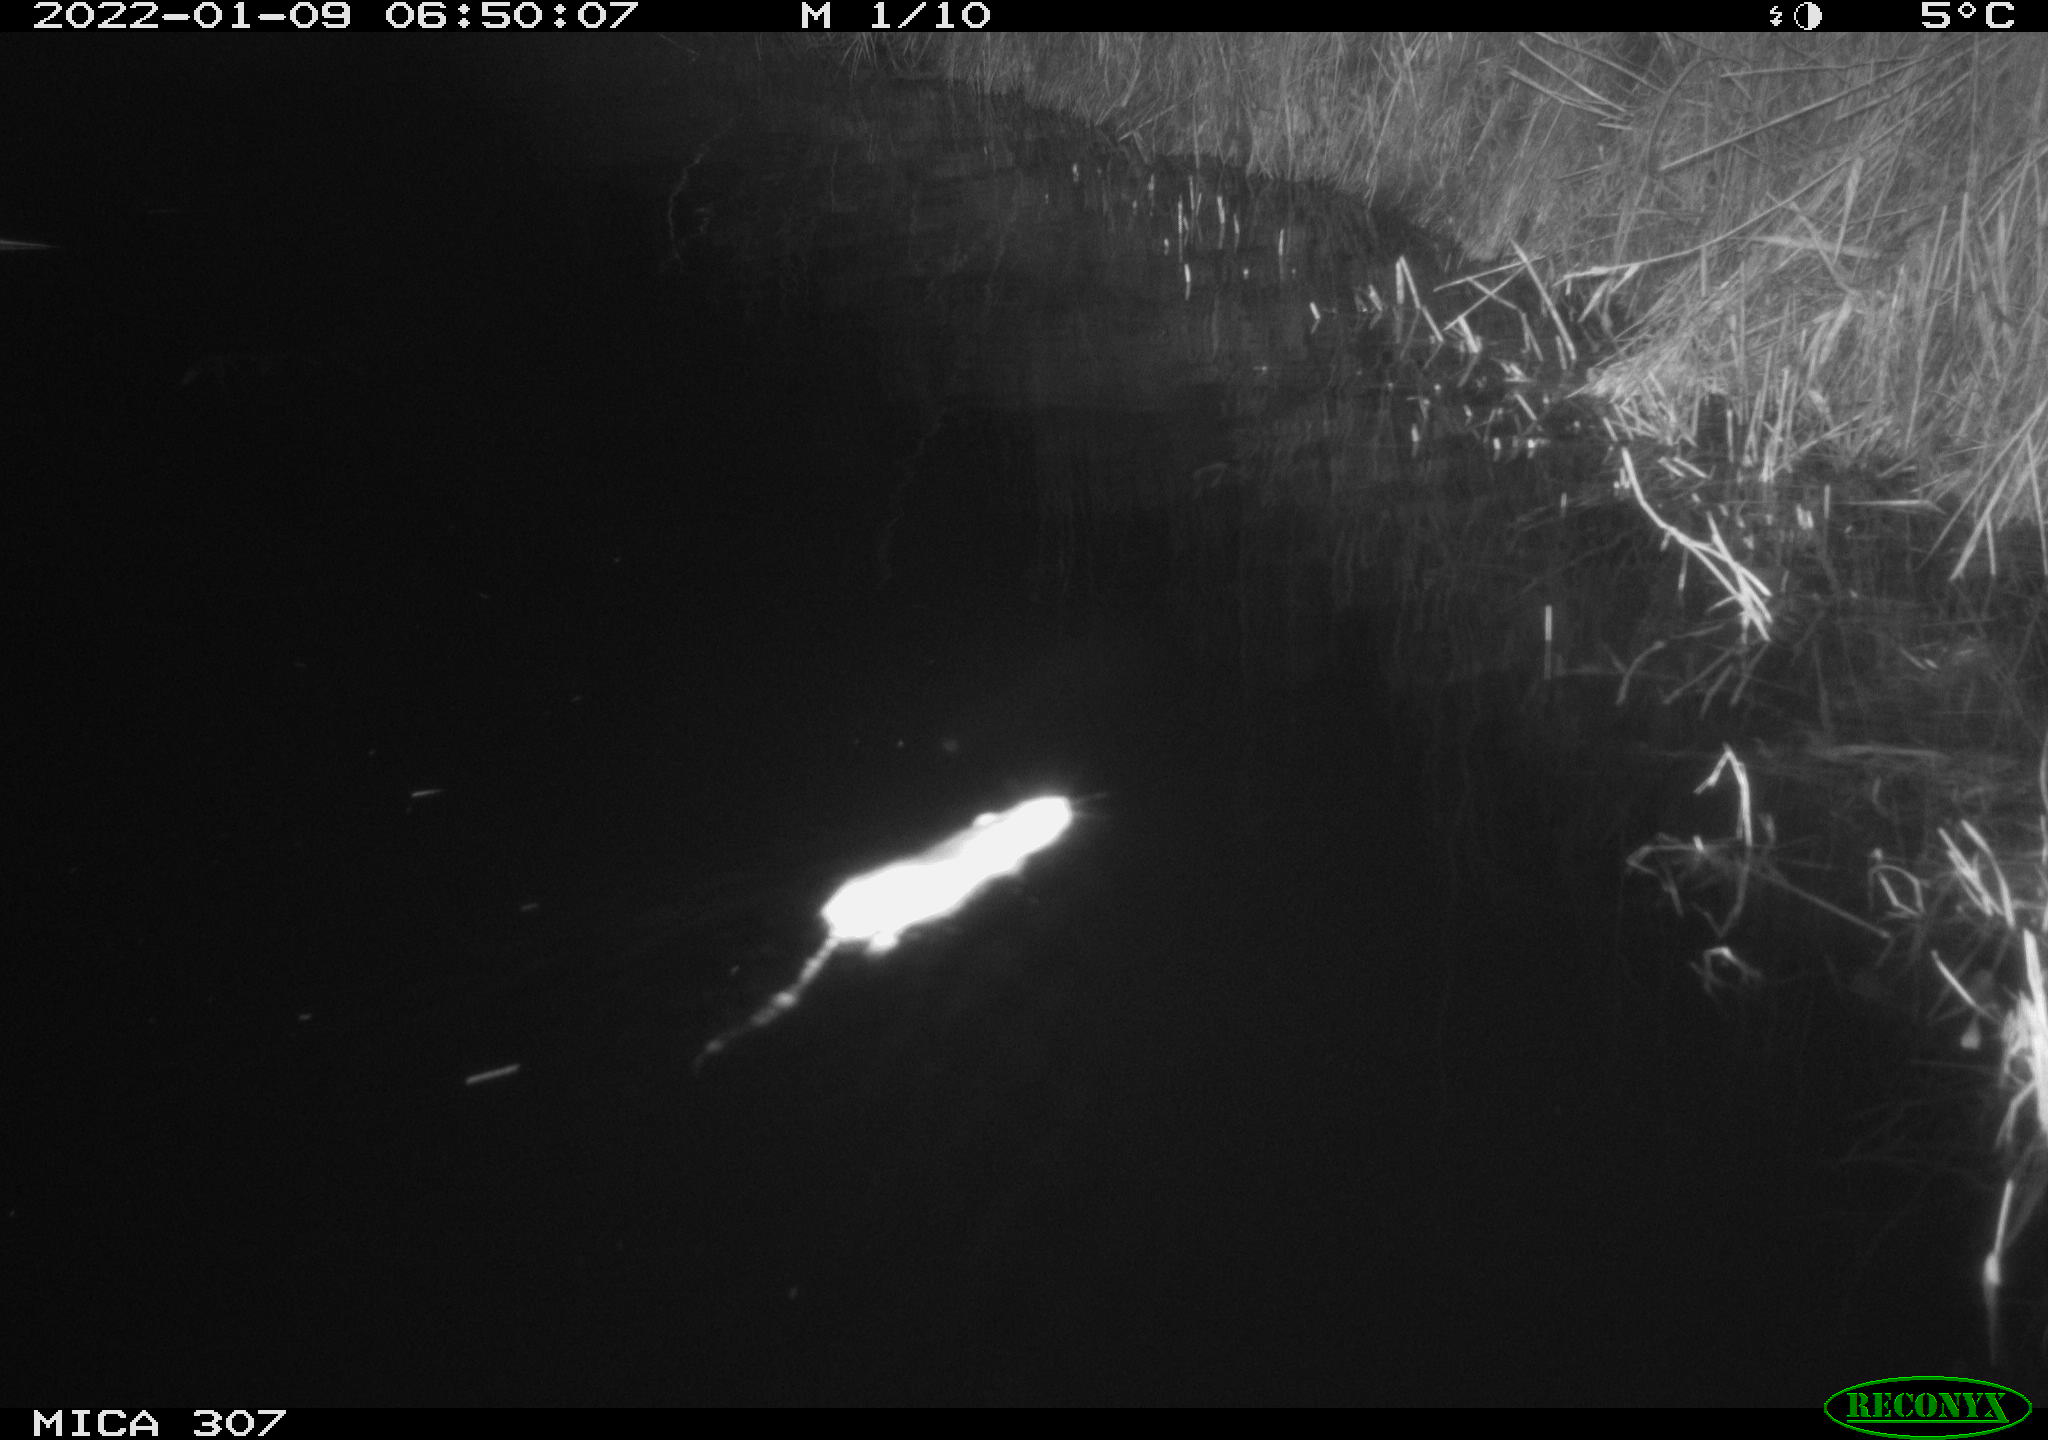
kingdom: Animalia
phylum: Chordata
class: Mammalia
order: Rodentia
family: Muridae
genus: Rattus
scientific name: Rattus norvegicus
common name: Brown rat
